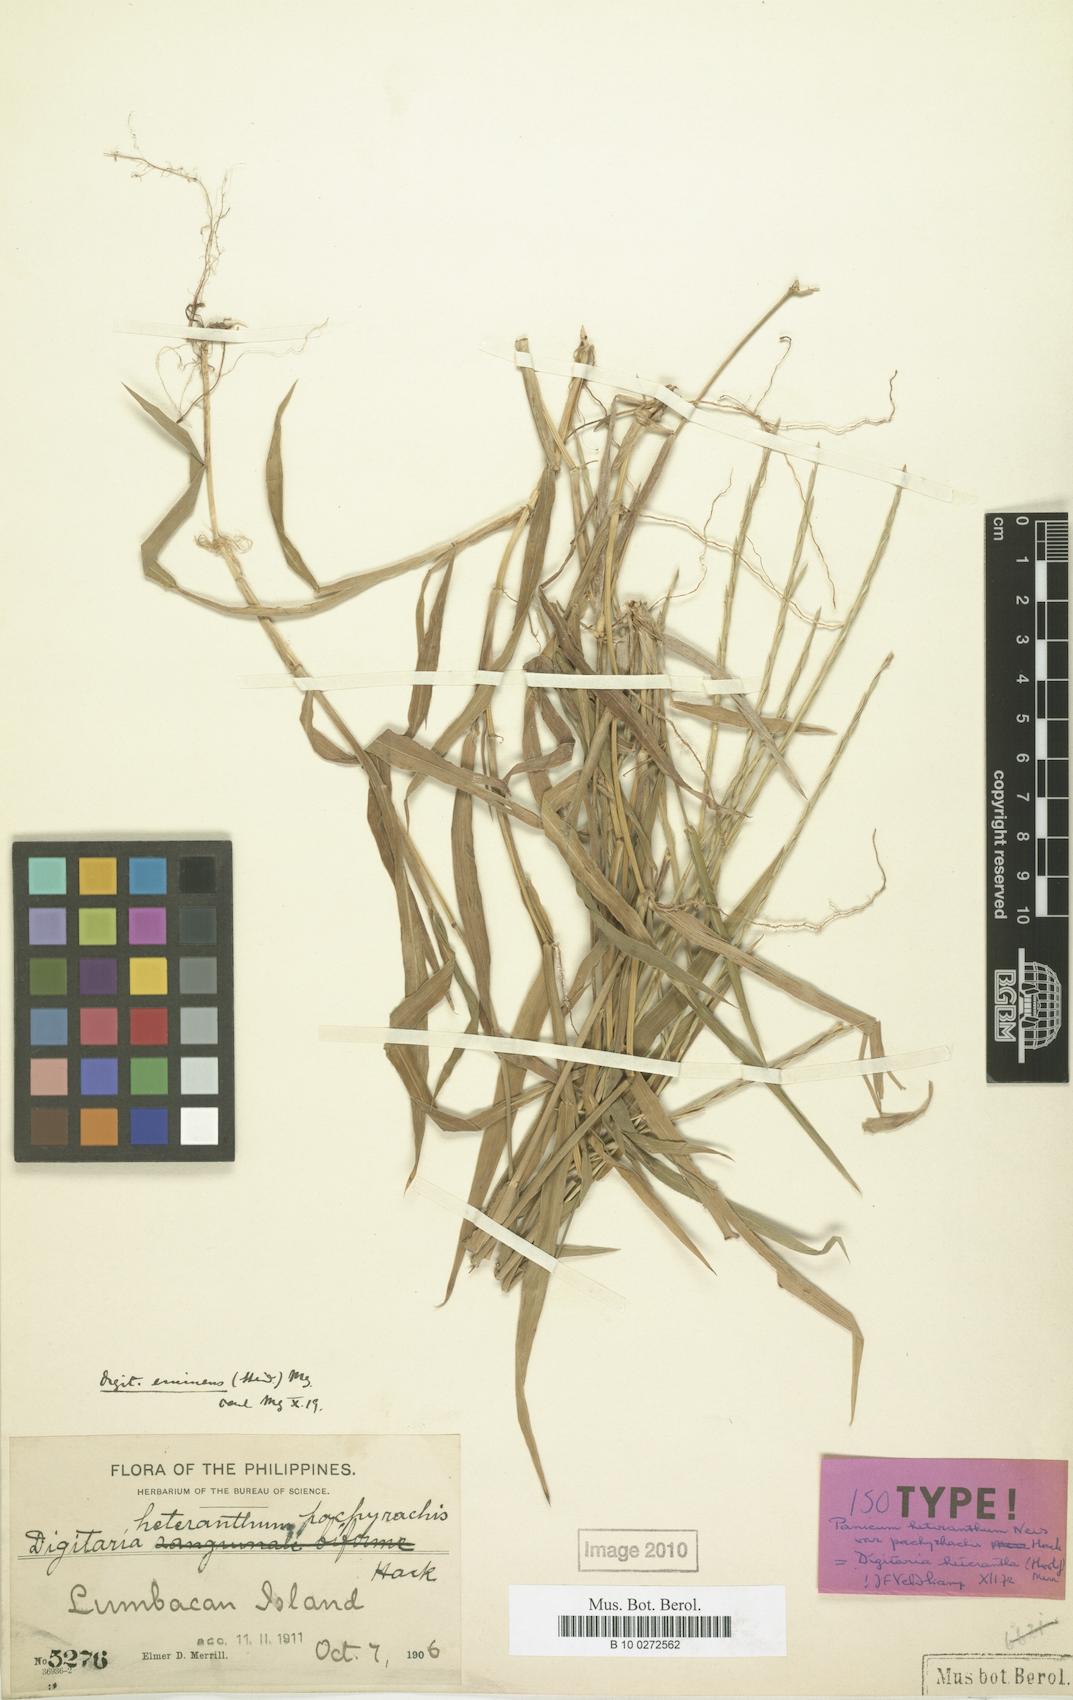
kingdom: Plantae
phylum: Tracheophyta
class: Liliopsida
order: Poales
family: Poaceae
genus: Digitaria
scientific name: Digitaria heterantha
